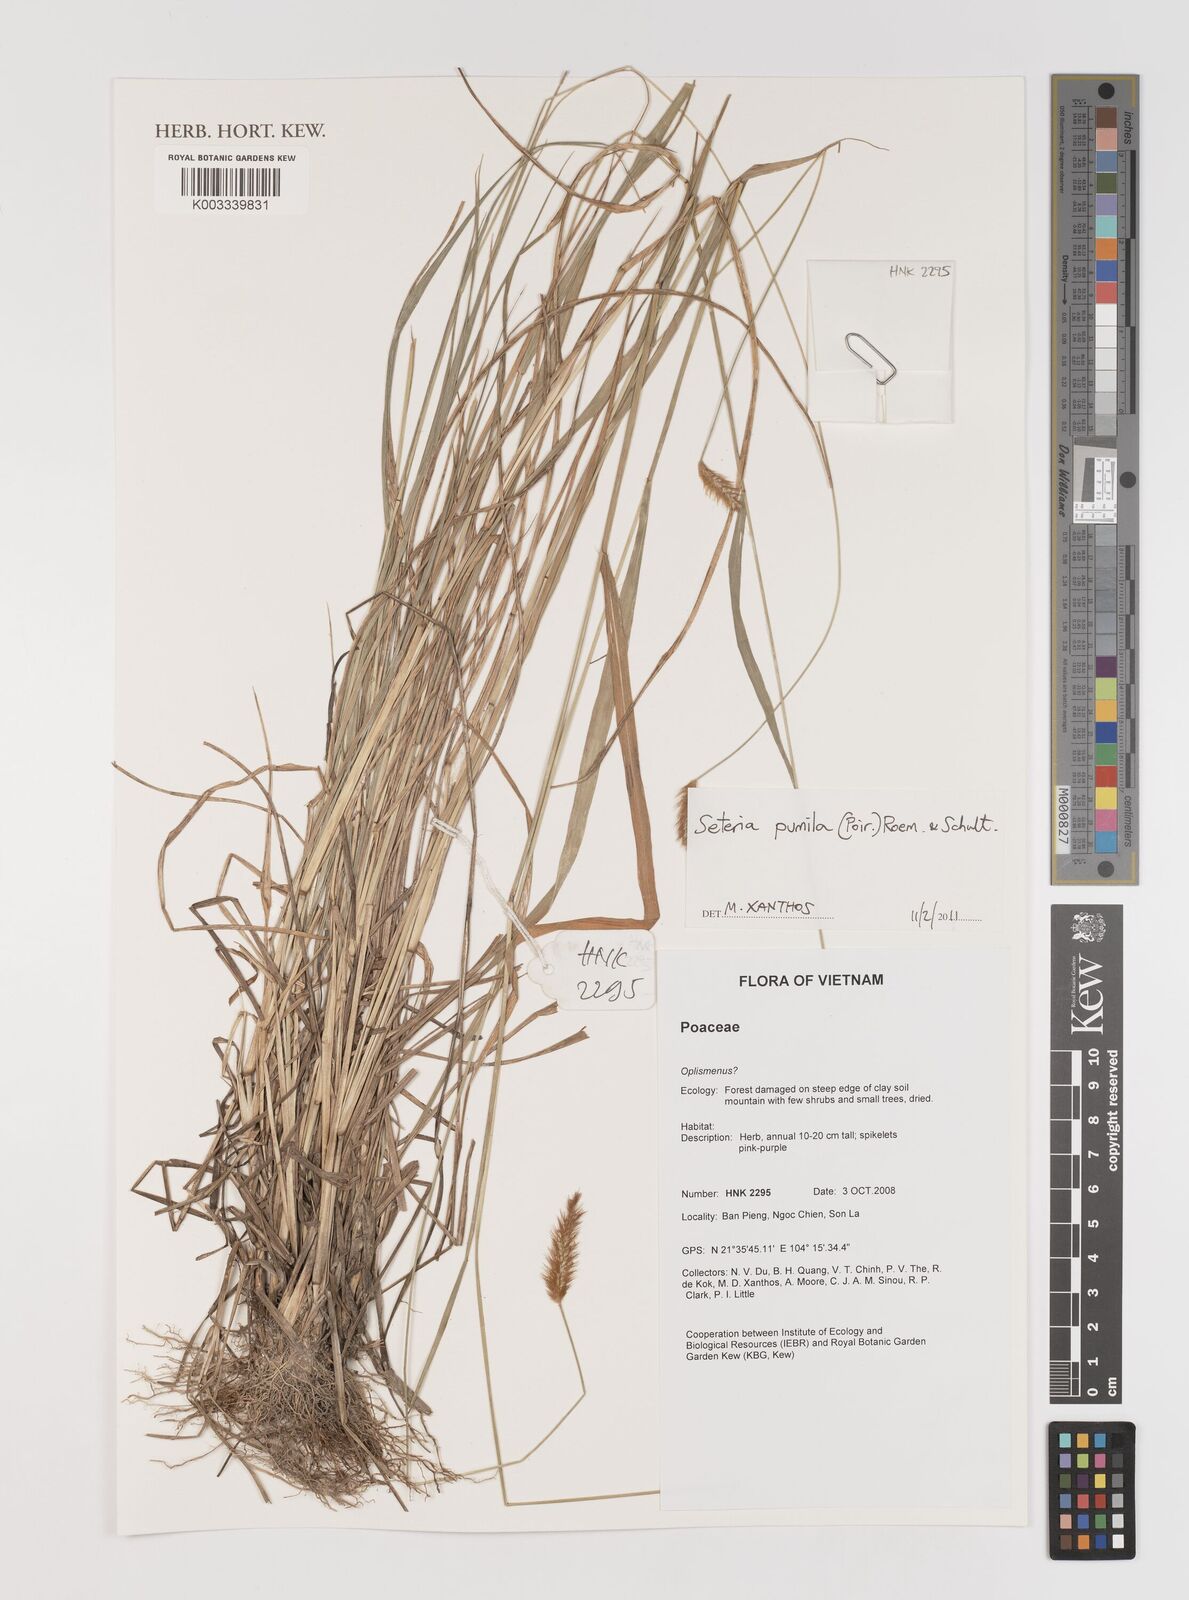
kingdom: Plantae
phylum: Tracheophyta
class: Liliopsida
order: Poales
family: Poaceae
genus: Setaria
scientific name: Setaria pumila
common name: Yellow bristle-grass
